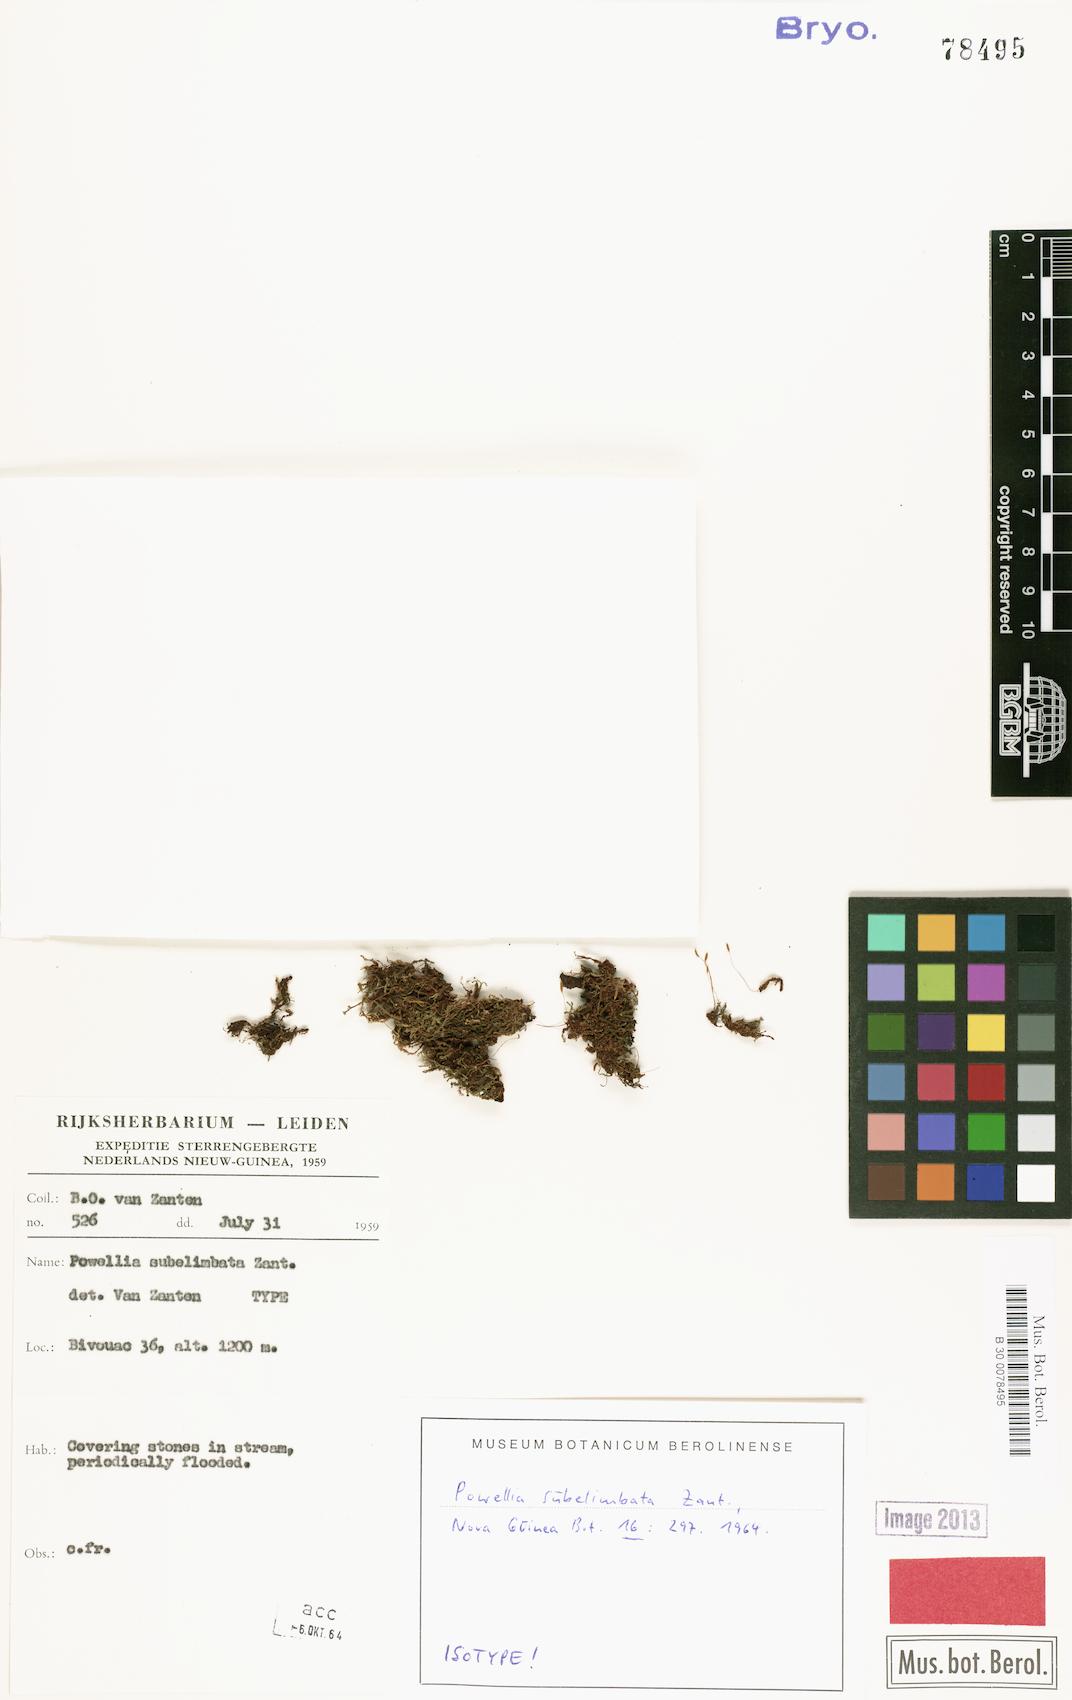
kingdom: Plantae
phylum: Bryophyta
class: Bryopsida
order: Hypnodendrales
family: Racopilaceae
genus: Powelliopsis
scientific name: Powelliopsis subelimbata
